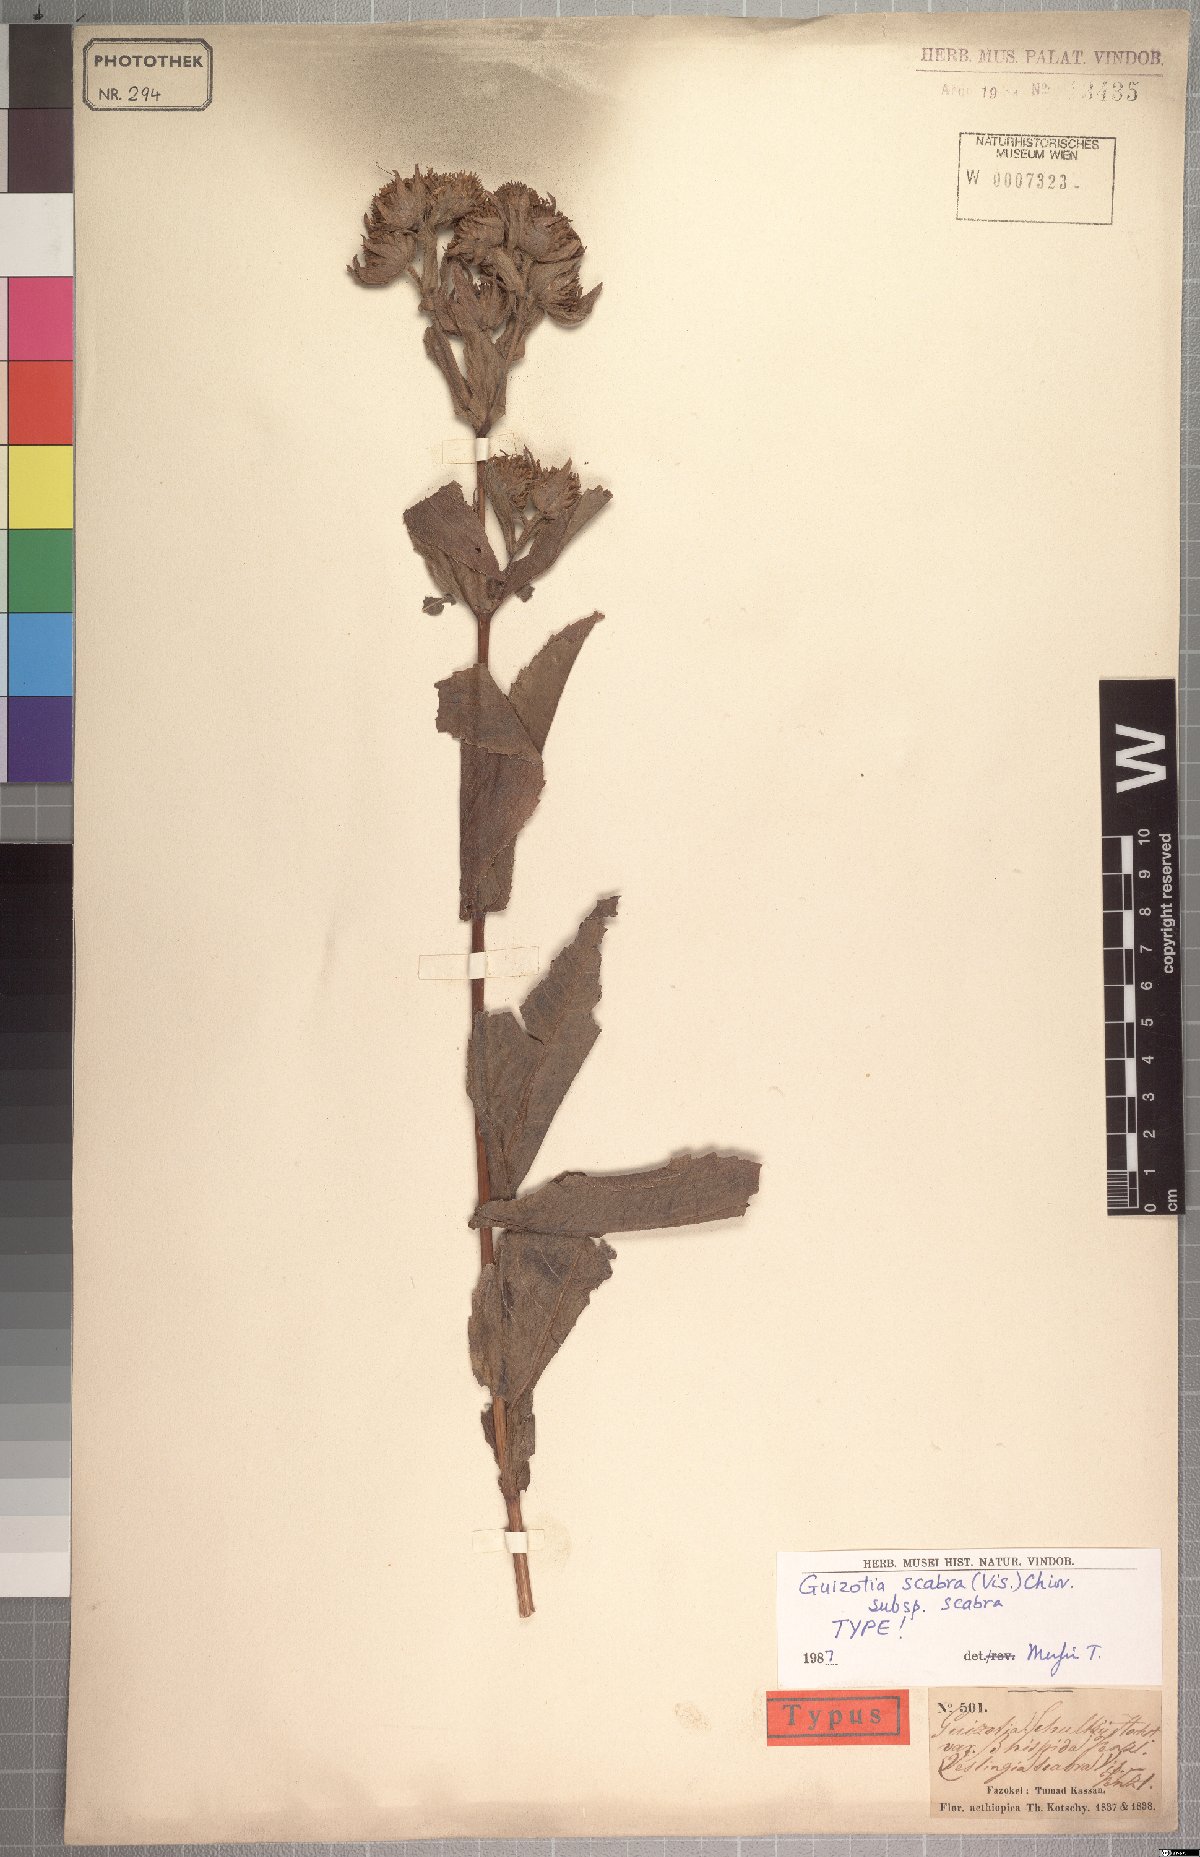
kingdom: Plantae
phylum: Tracheophyta
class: Magnoliopsida
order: Asterales
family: Asteraceae
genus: Guizotia
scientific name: Guizotia scabra
